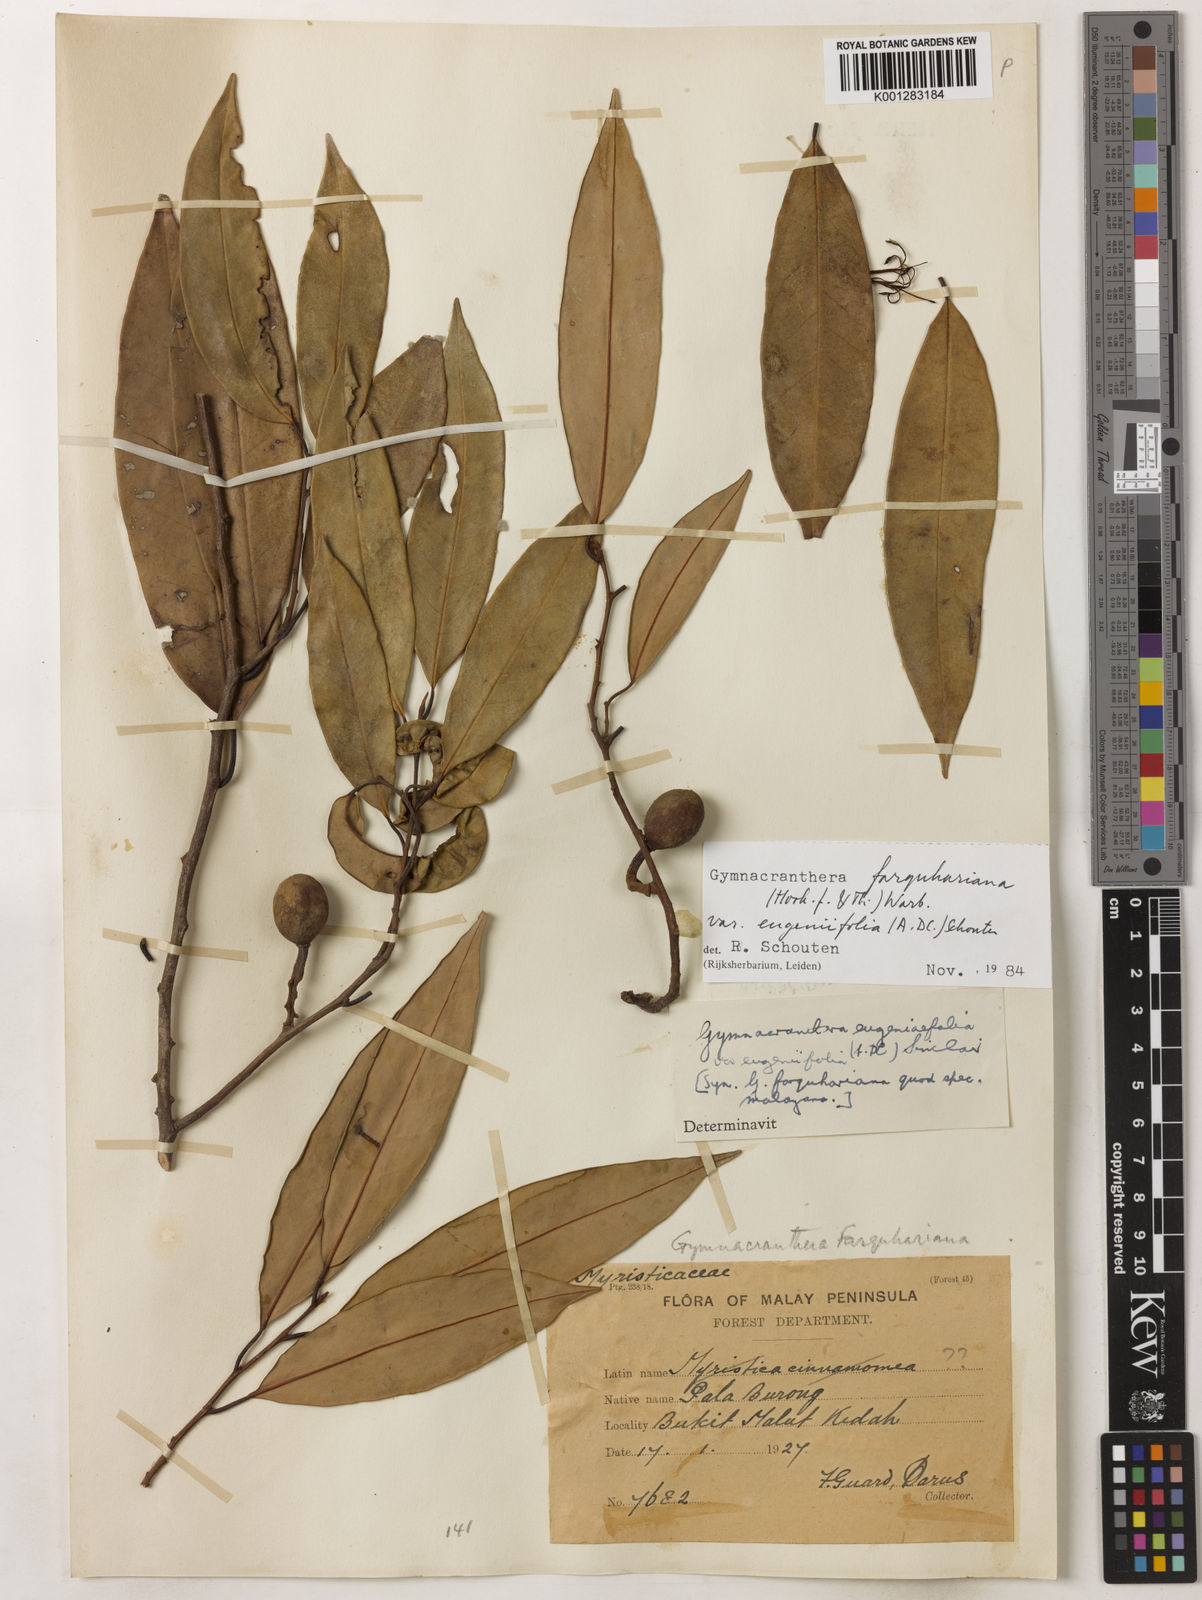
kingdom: Plantae
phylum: Tracheophyta
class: Magnoliopsida
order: Magnoliales
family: Myristicaceae
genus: Gymnacranthera
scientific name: Gymnacranthera farquhariana
